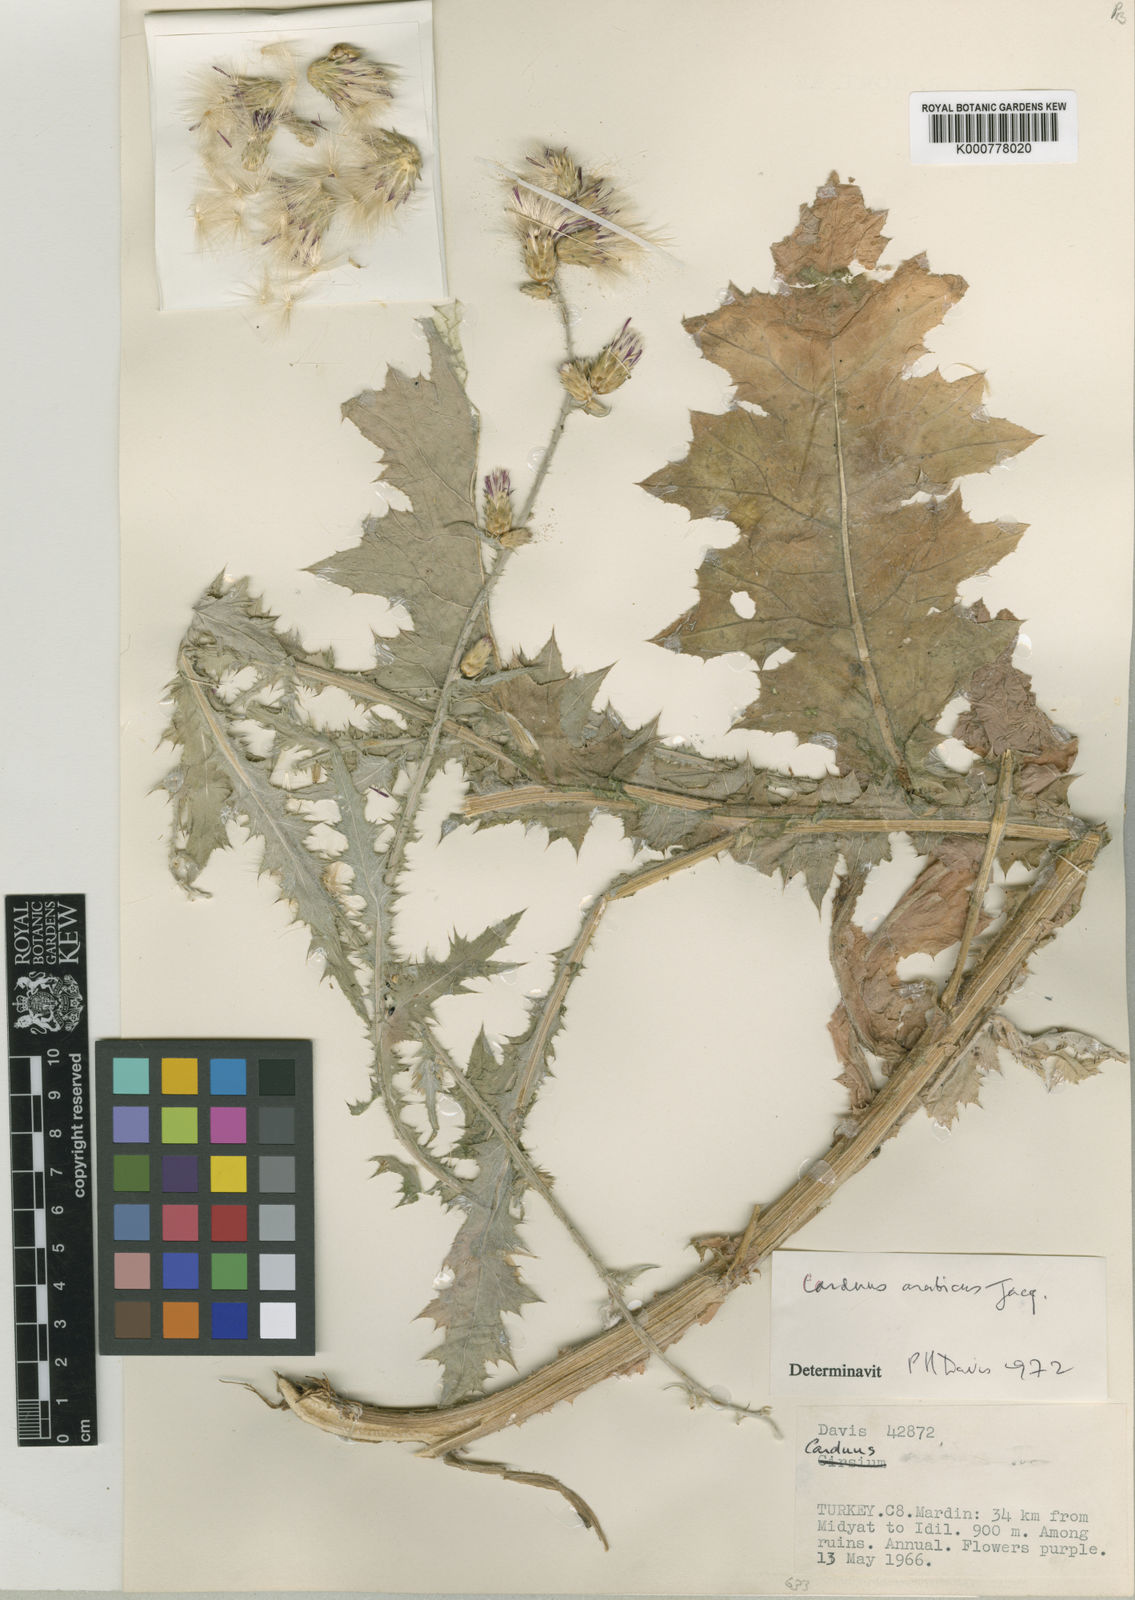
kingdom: Plantae
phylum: Tracheophyta
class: Magnoliopsida
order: Asterales
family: Asteraceae
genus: Carduus
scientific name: Carduus arabicus
